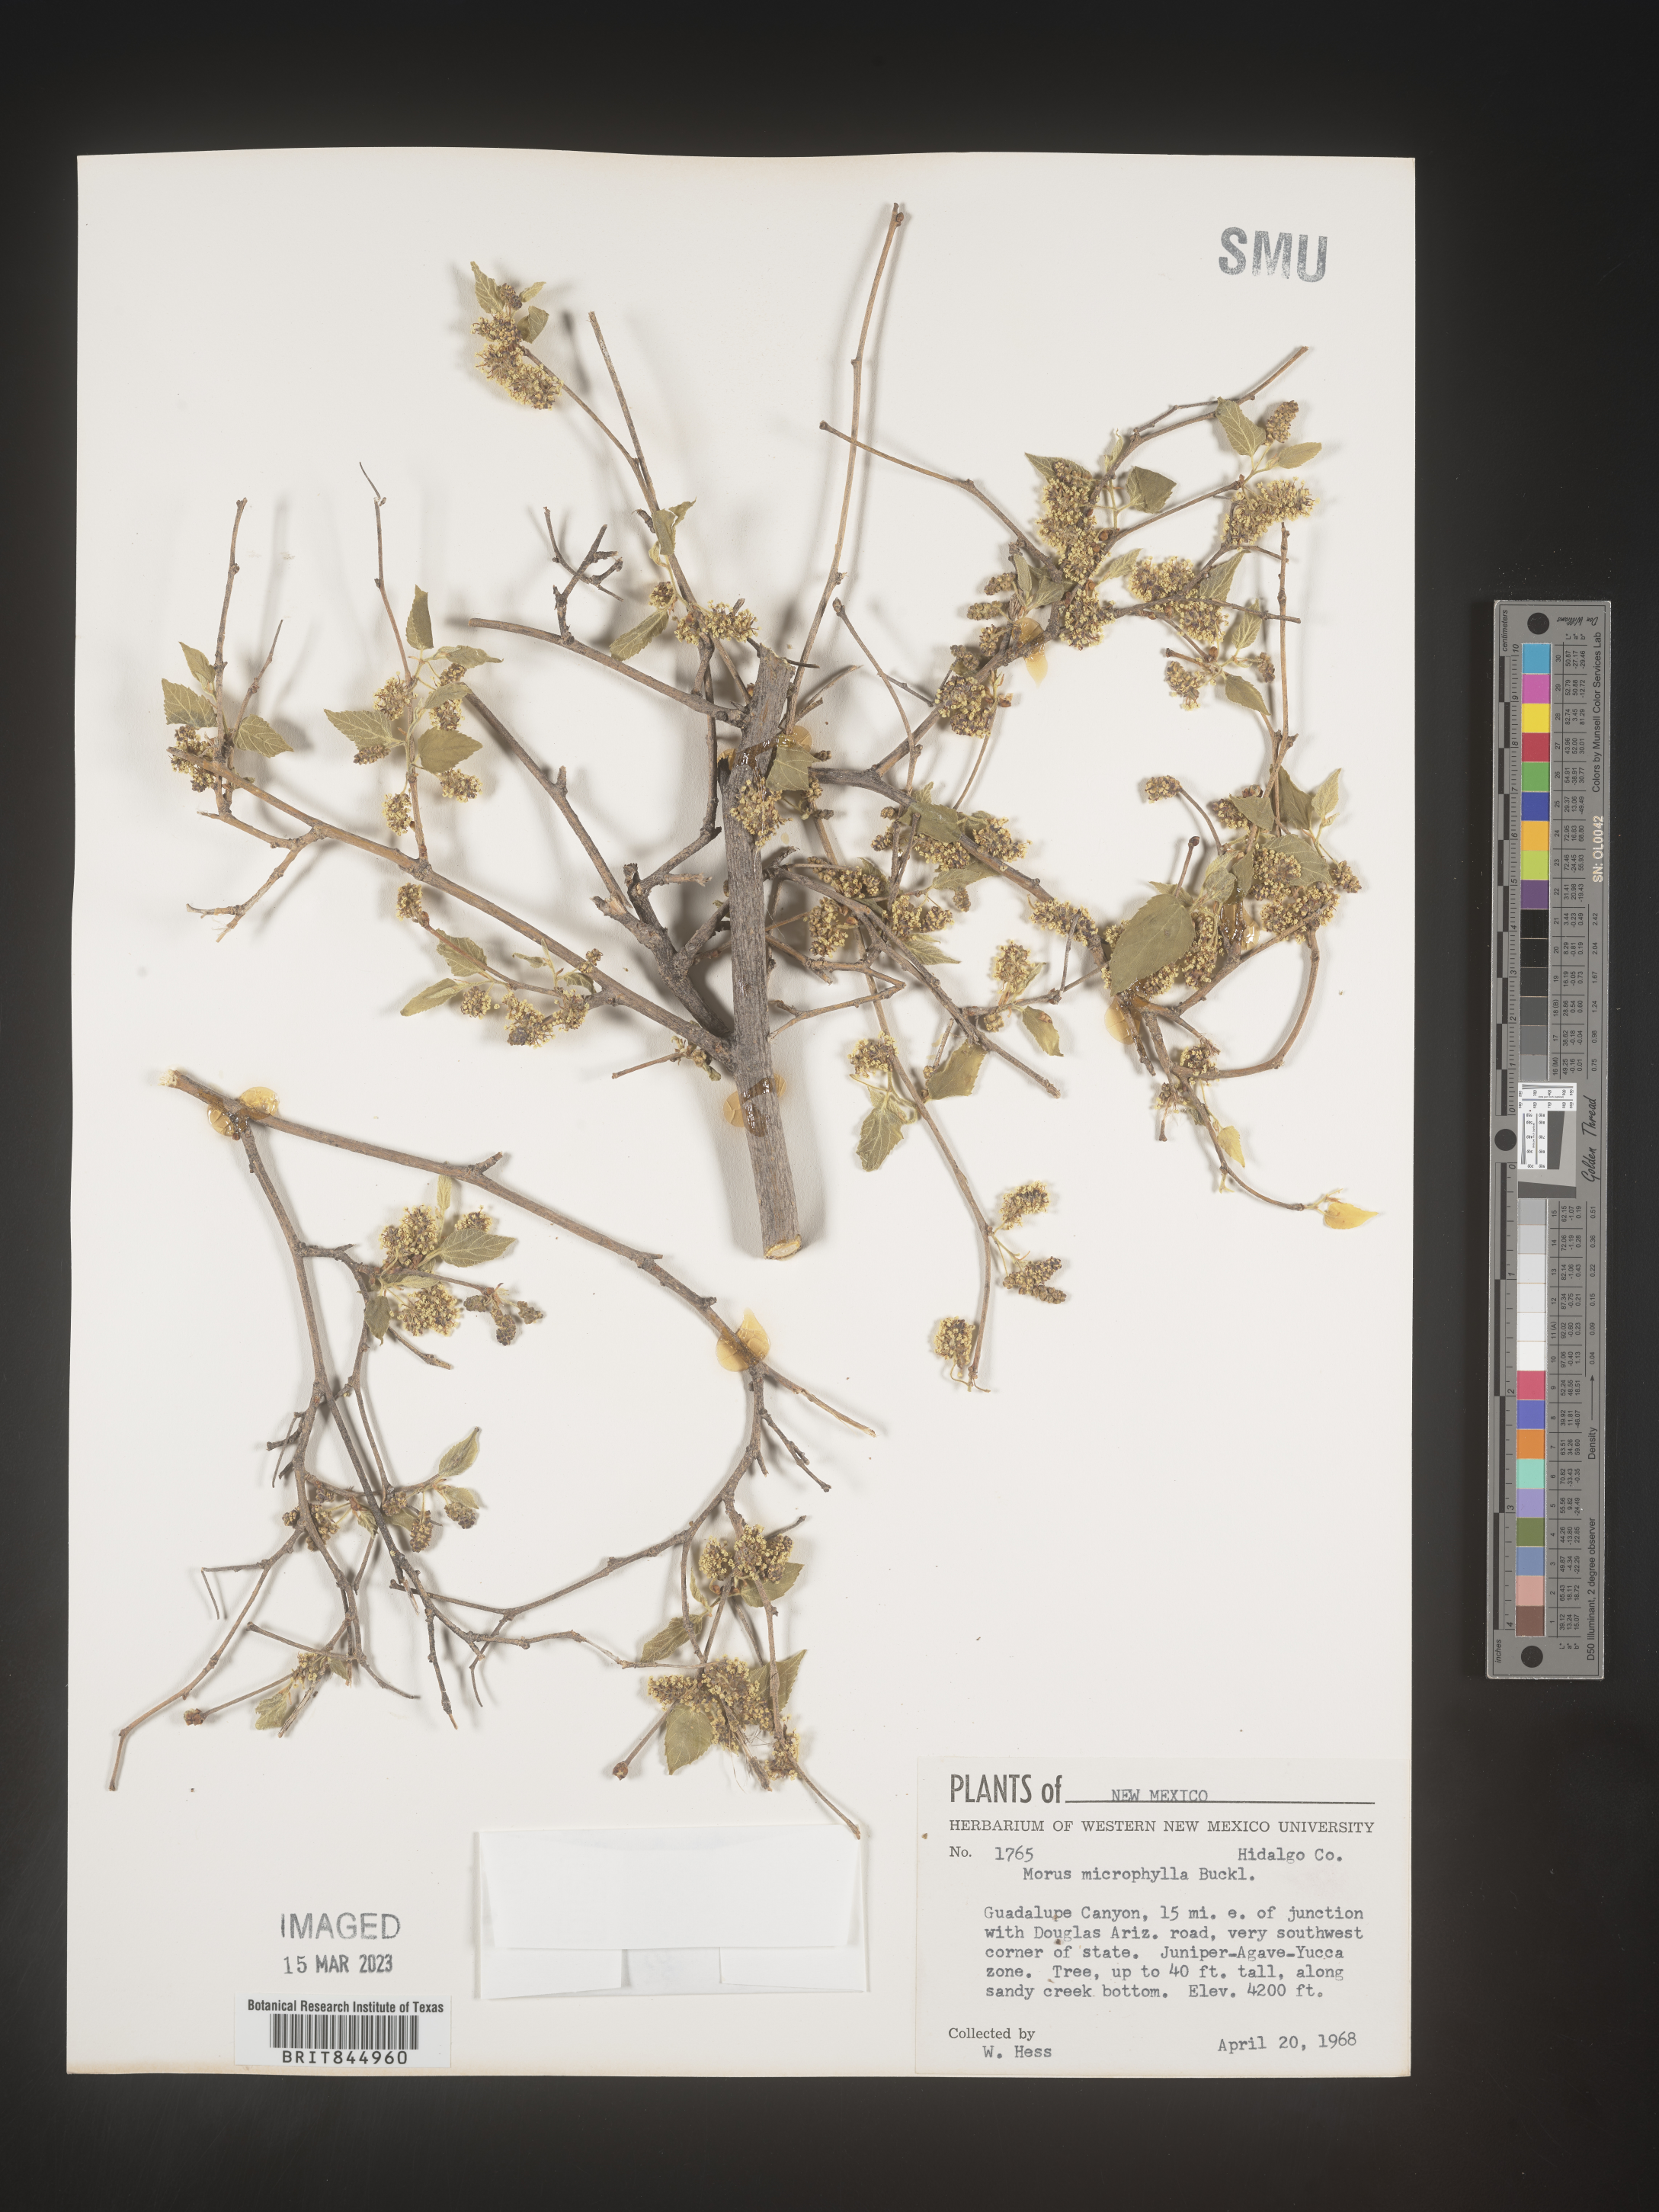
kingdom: Plantae
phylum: Tracheophyta
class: Magnoliopsida
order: Rosales
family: Moraceae
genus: Morus
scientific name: Morus microphylla
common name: Mexican mulberry
